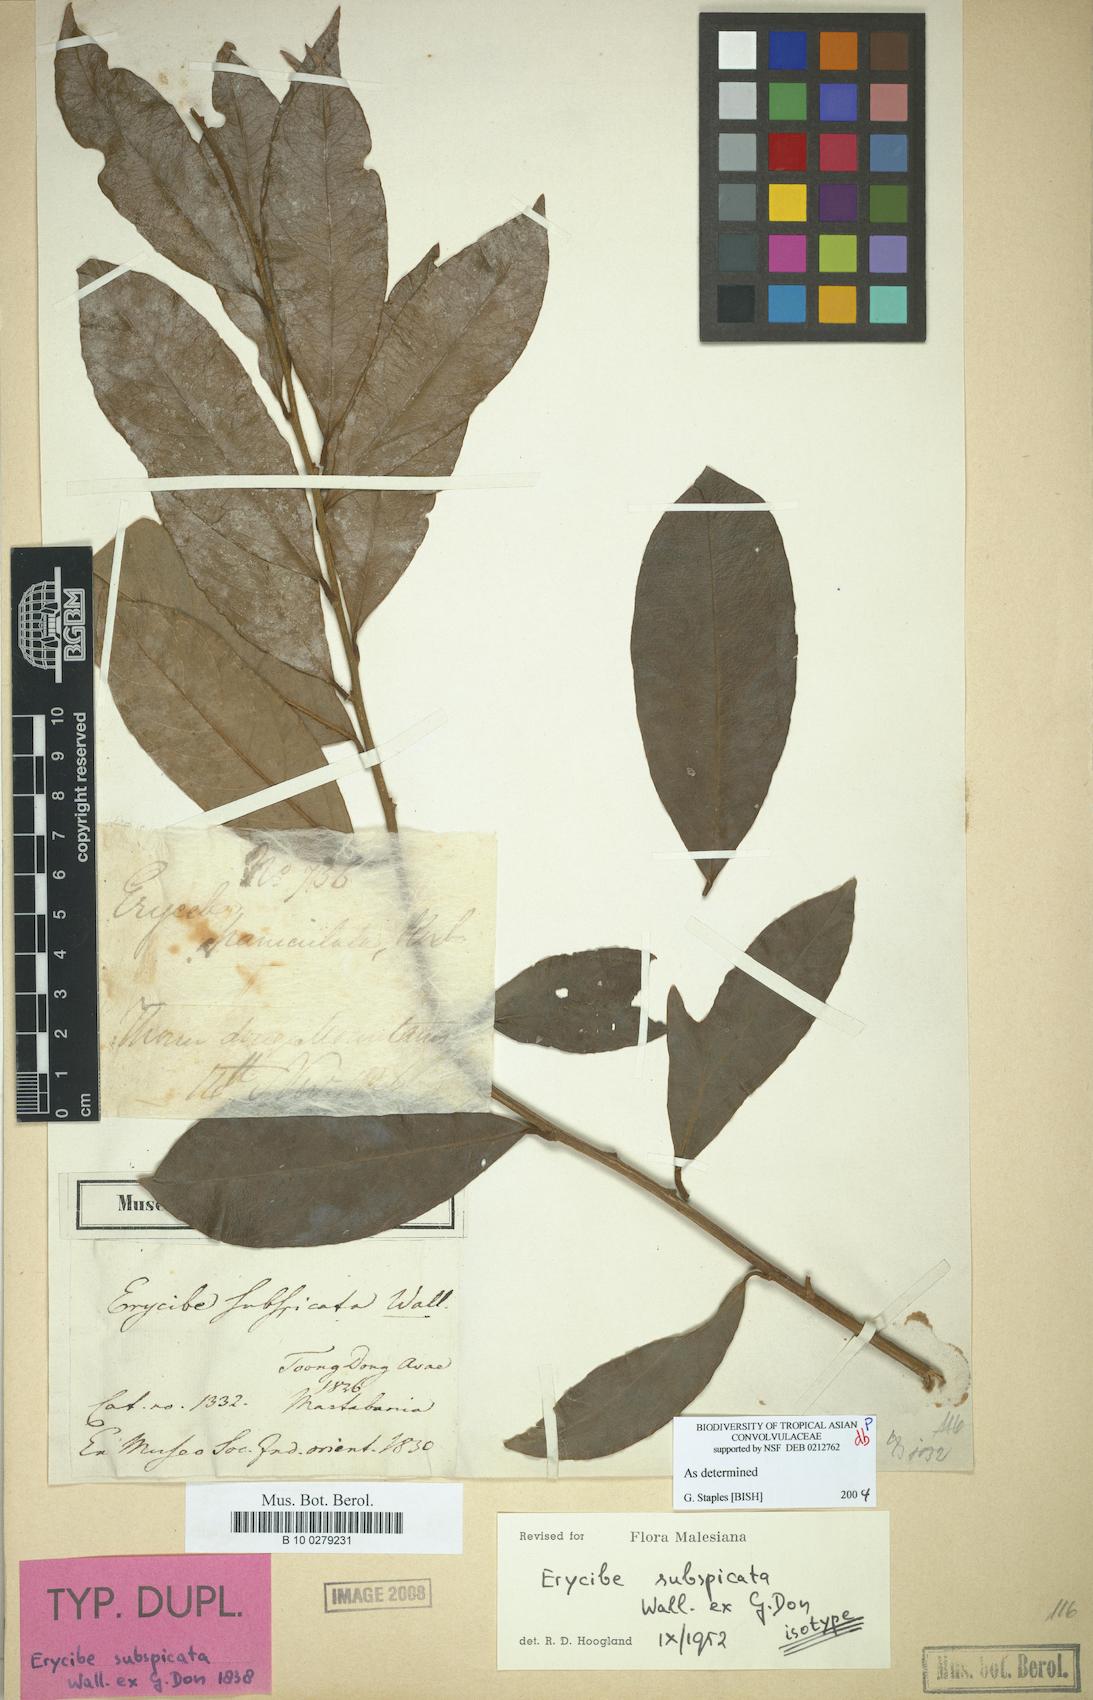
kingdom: Plantae
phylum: Tracheophyta
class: Magnoliopsida
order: Solanales
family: Convolvulaceae
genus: Erycibe
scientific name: Erycibe subspicata
